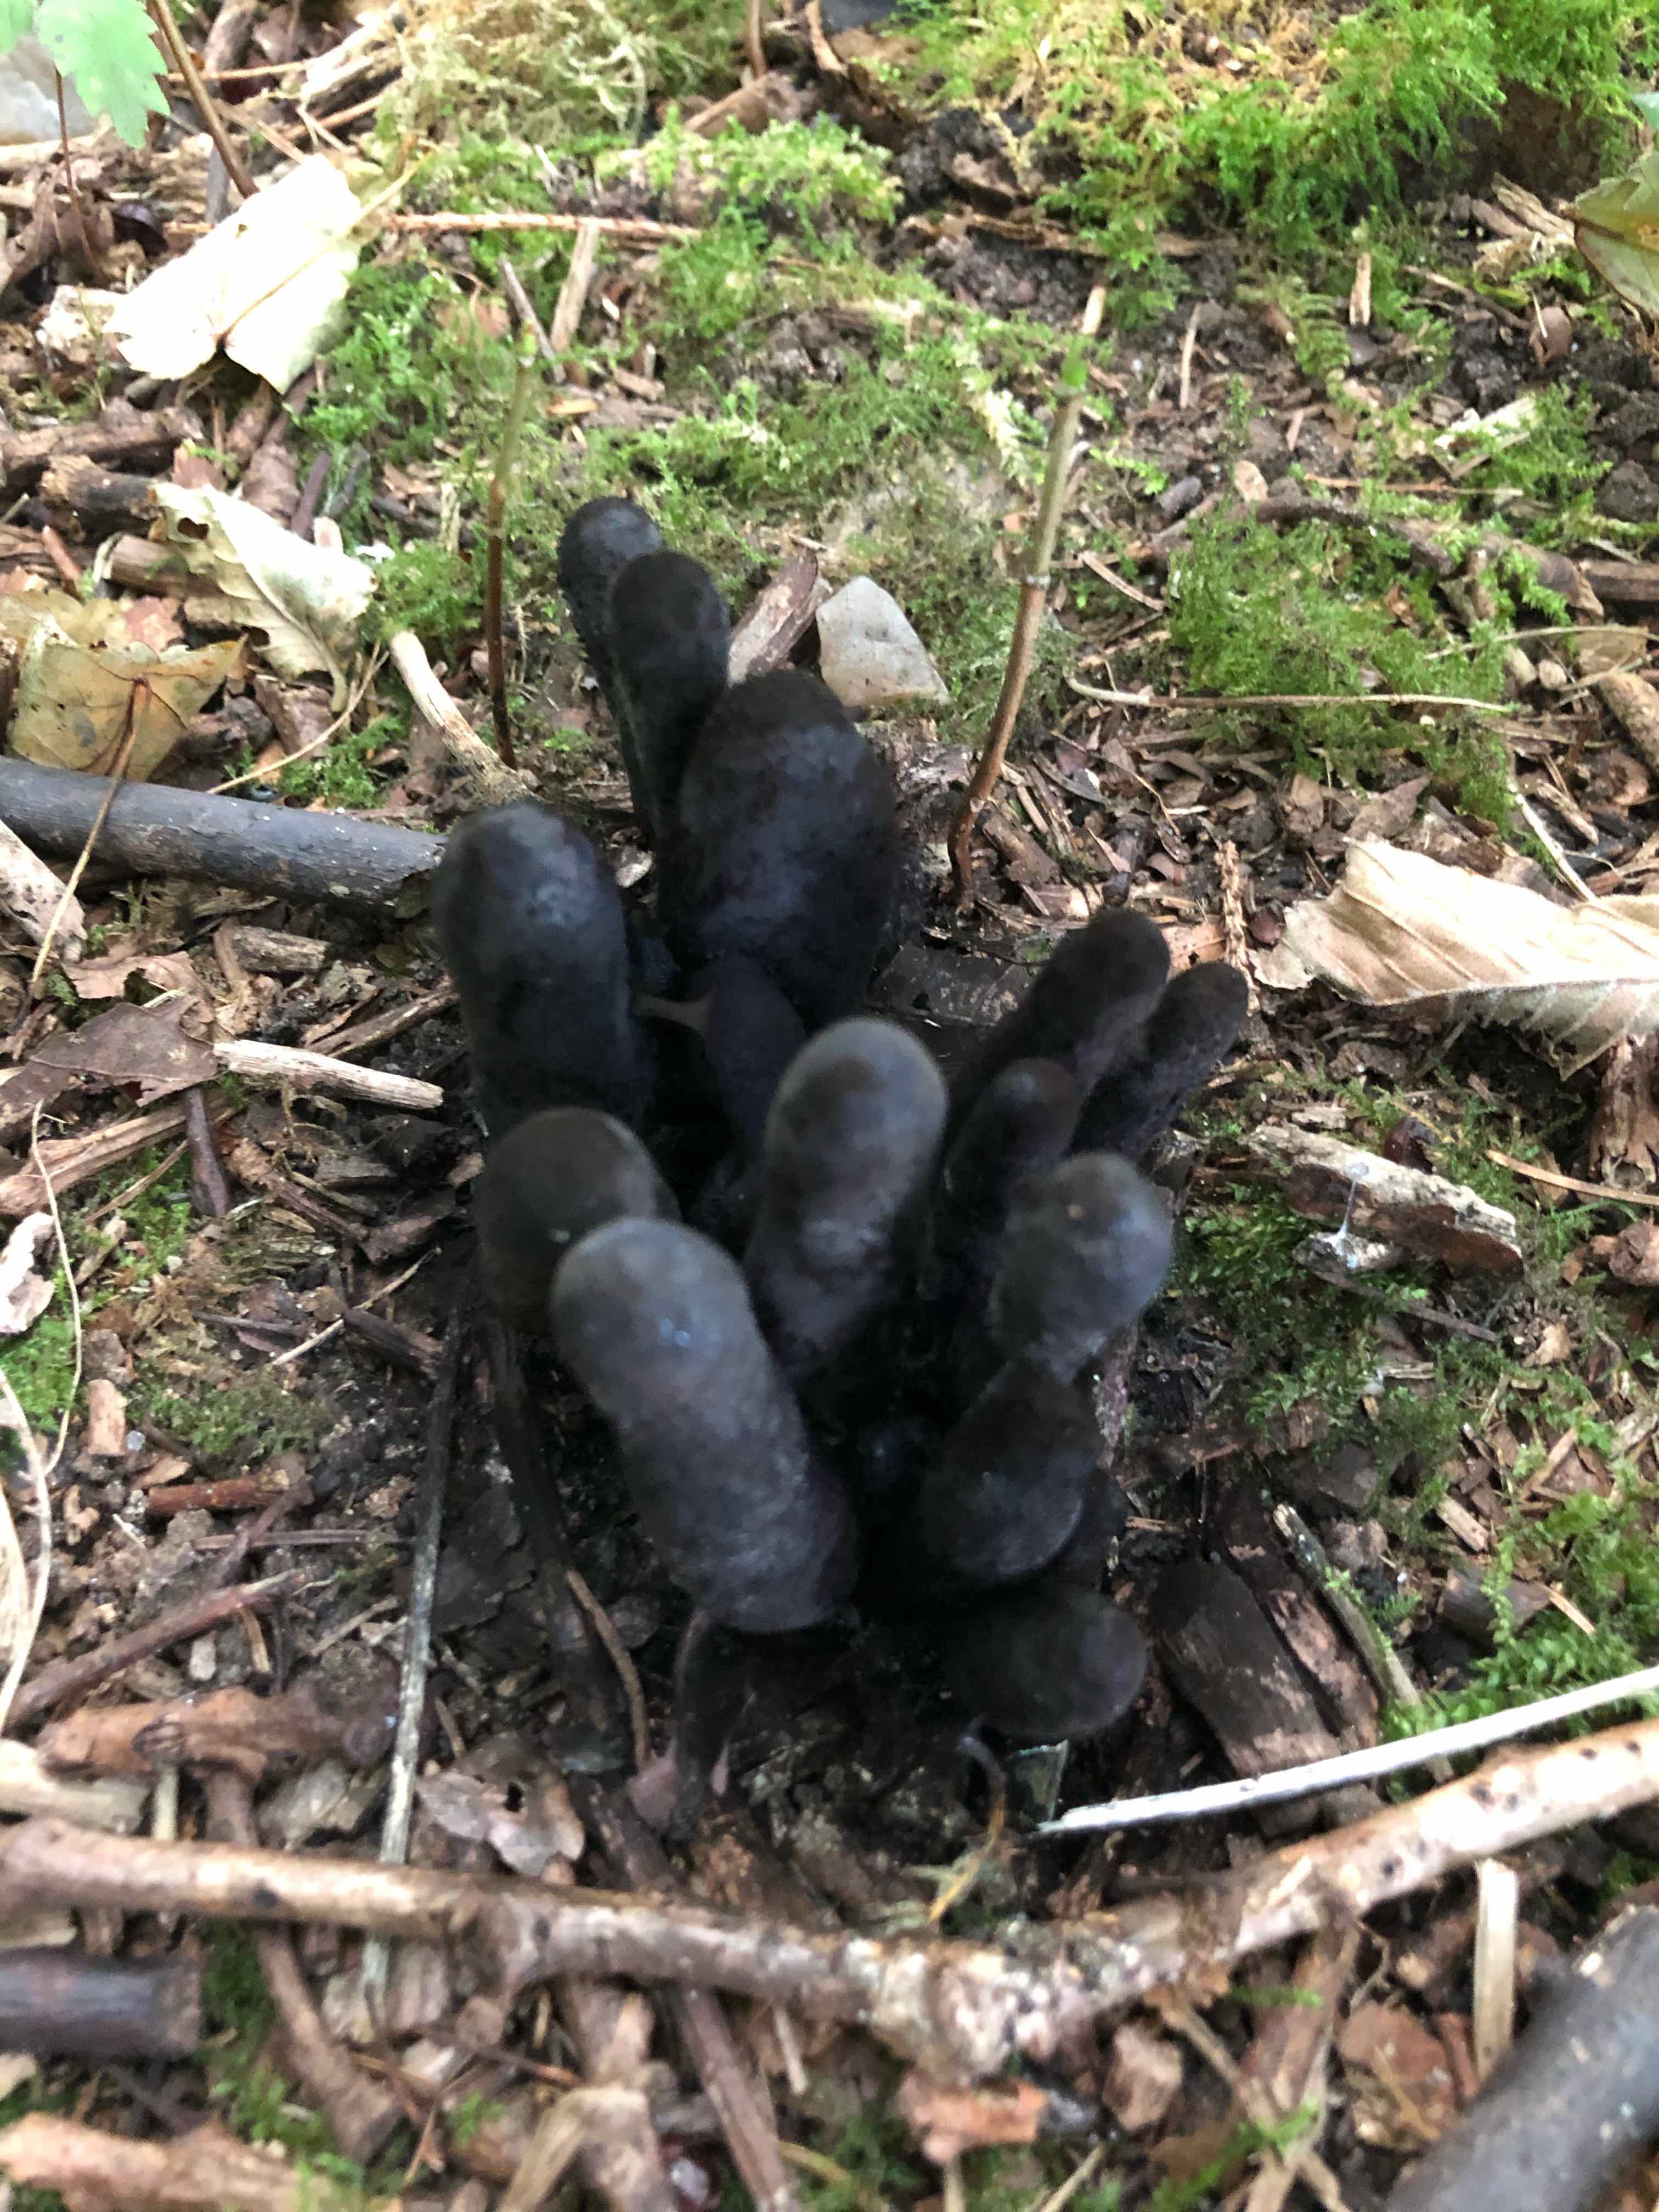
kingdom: Fungi
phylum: Ascomycota
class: Sordariomycetes
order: Xylariales
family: Xylariaceae
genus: Xylaria
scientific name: Xylaria polymorpha
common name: kølle-stødsvamp
